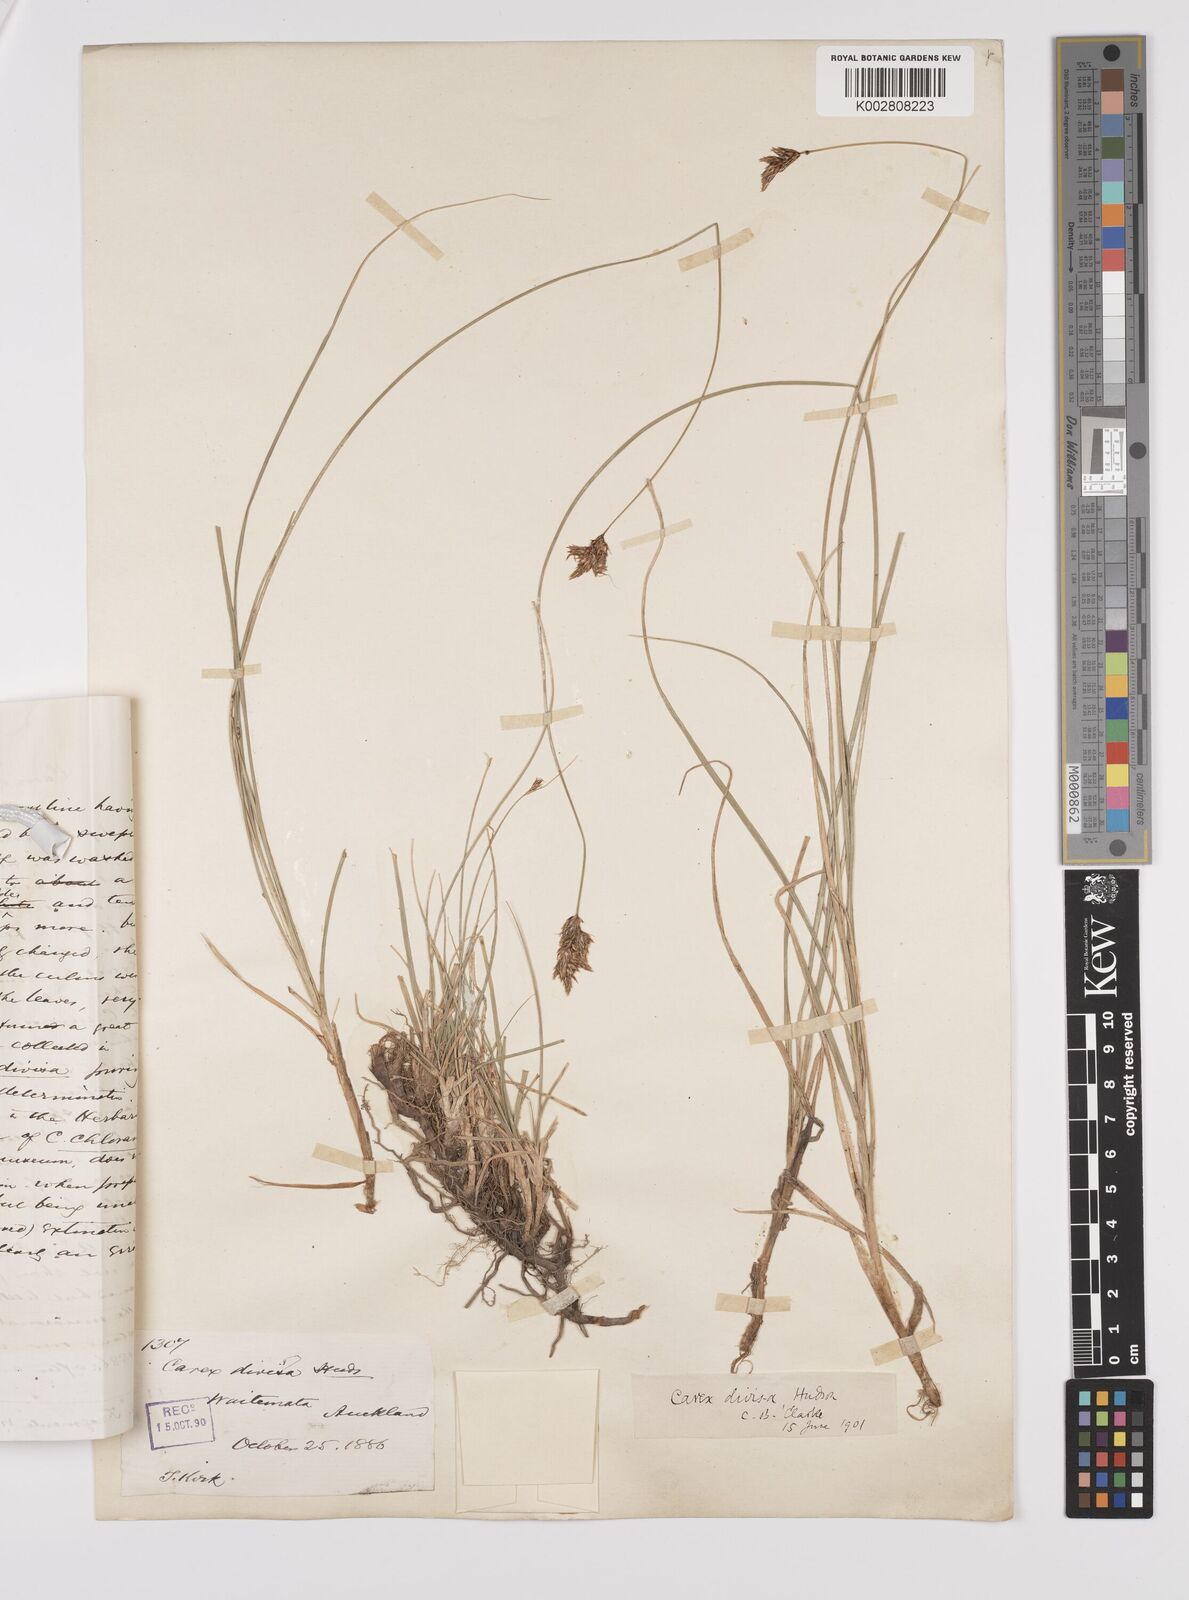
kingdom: Plantae
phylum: Tracheophyta
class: Liliopsida
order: Poales
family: Cyperaceae
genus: Carex
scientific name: Carex divisa
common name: Divided sedge
